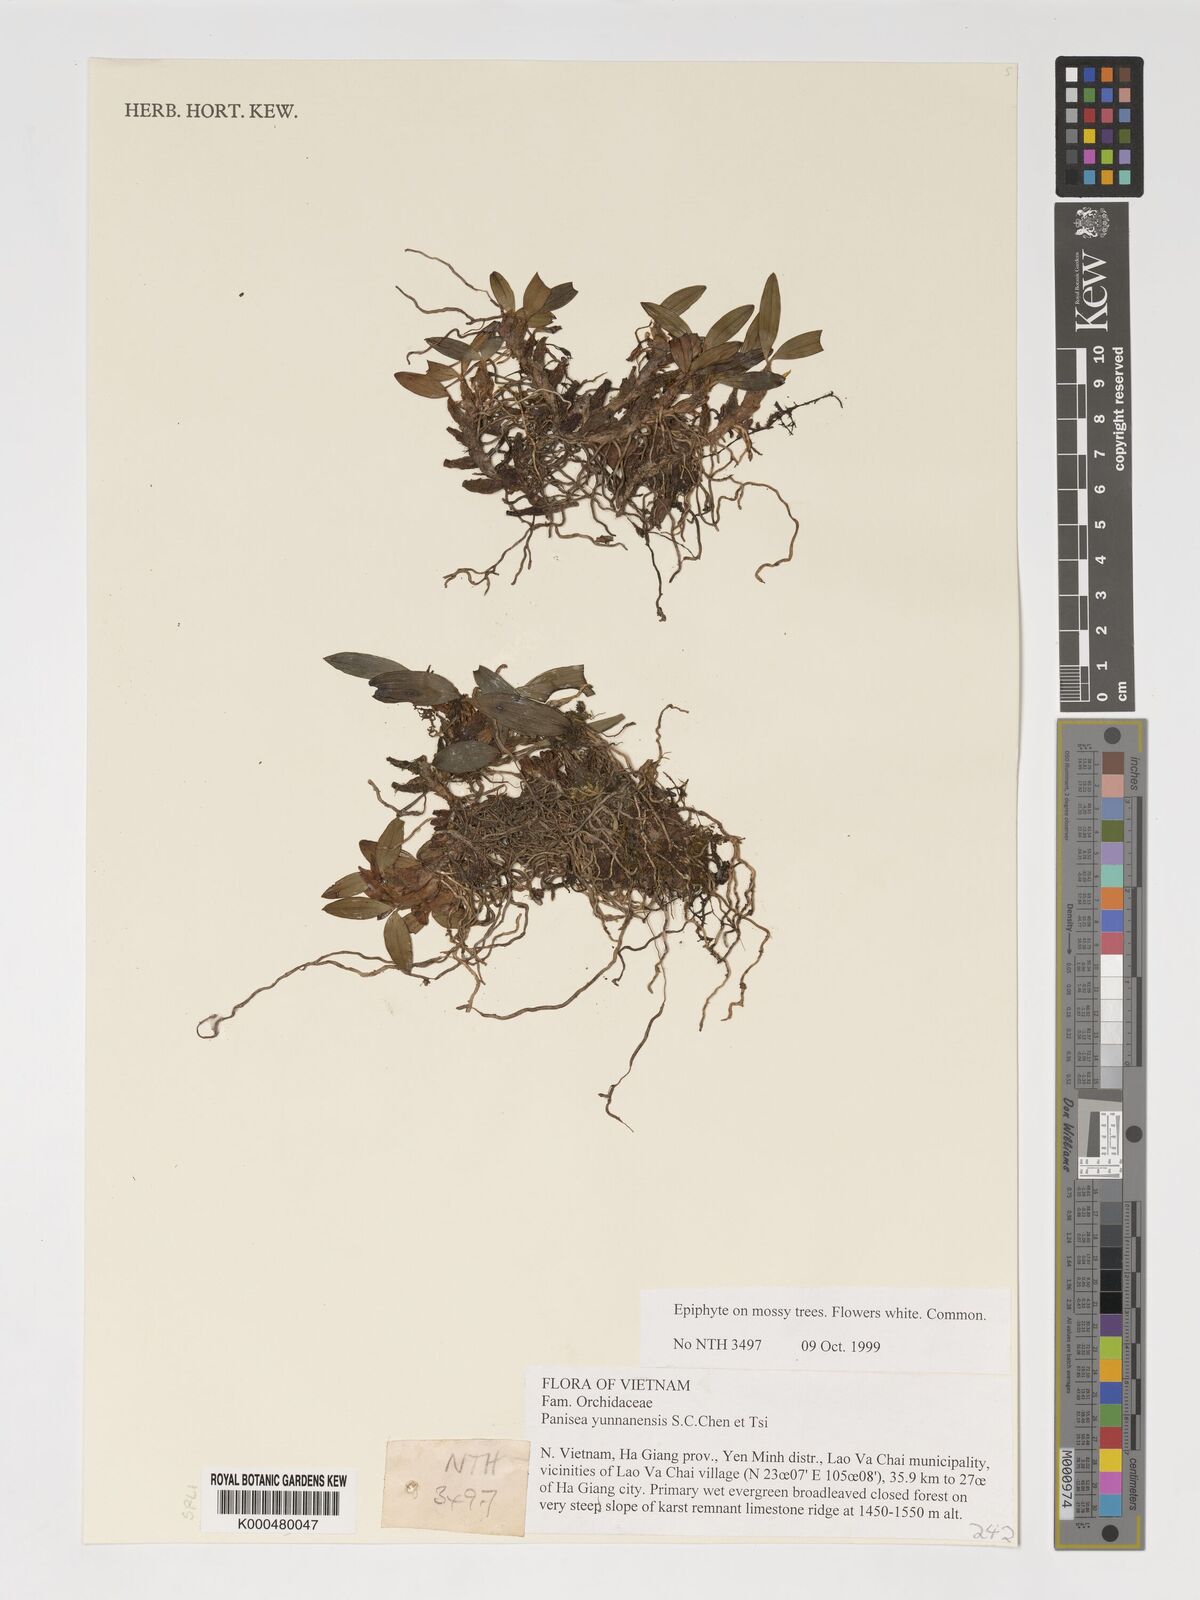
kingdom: Plantae
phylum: Tracheophyta
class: Liliopsida
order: Asparagales
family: Orchidaceae
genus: Coelogyne
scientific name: Coelogyne spathulata
